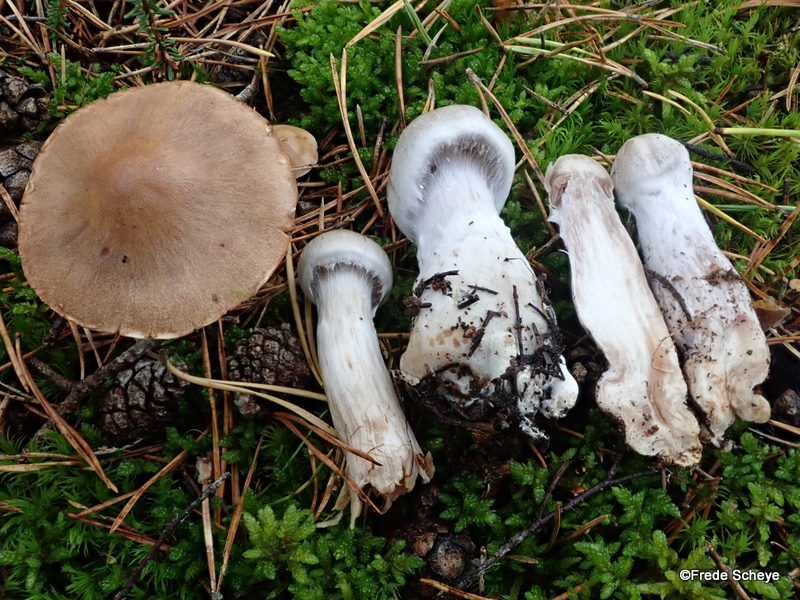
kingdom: Fungi
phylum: Basidiomycota
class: Agaricomycetes
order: Agaricales
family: Cortinariaceae
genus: Cortinarius
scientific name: Cortinarius malachius
